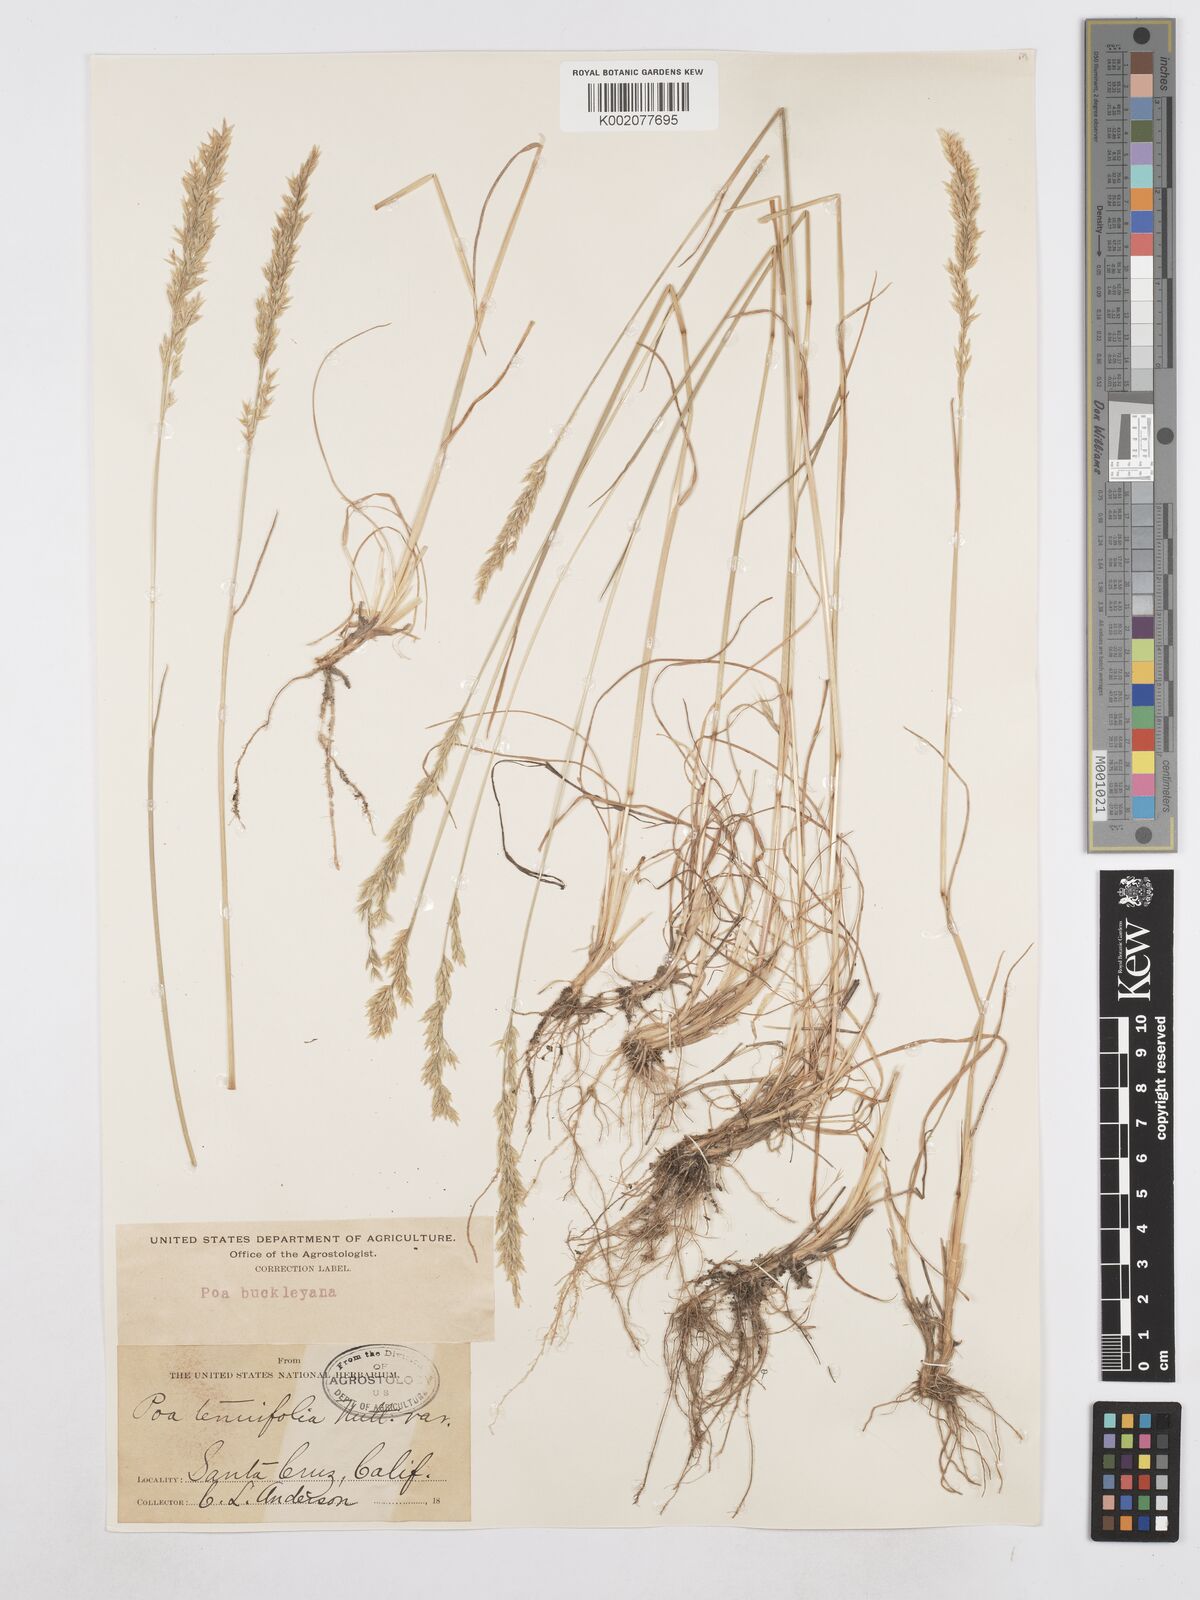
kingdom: Plantae
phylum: Tracheophyta
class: Liliopsida
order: Poales
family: Poaceae
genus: Poa
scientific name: Poa secunda
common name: Sandberg bluegrass
